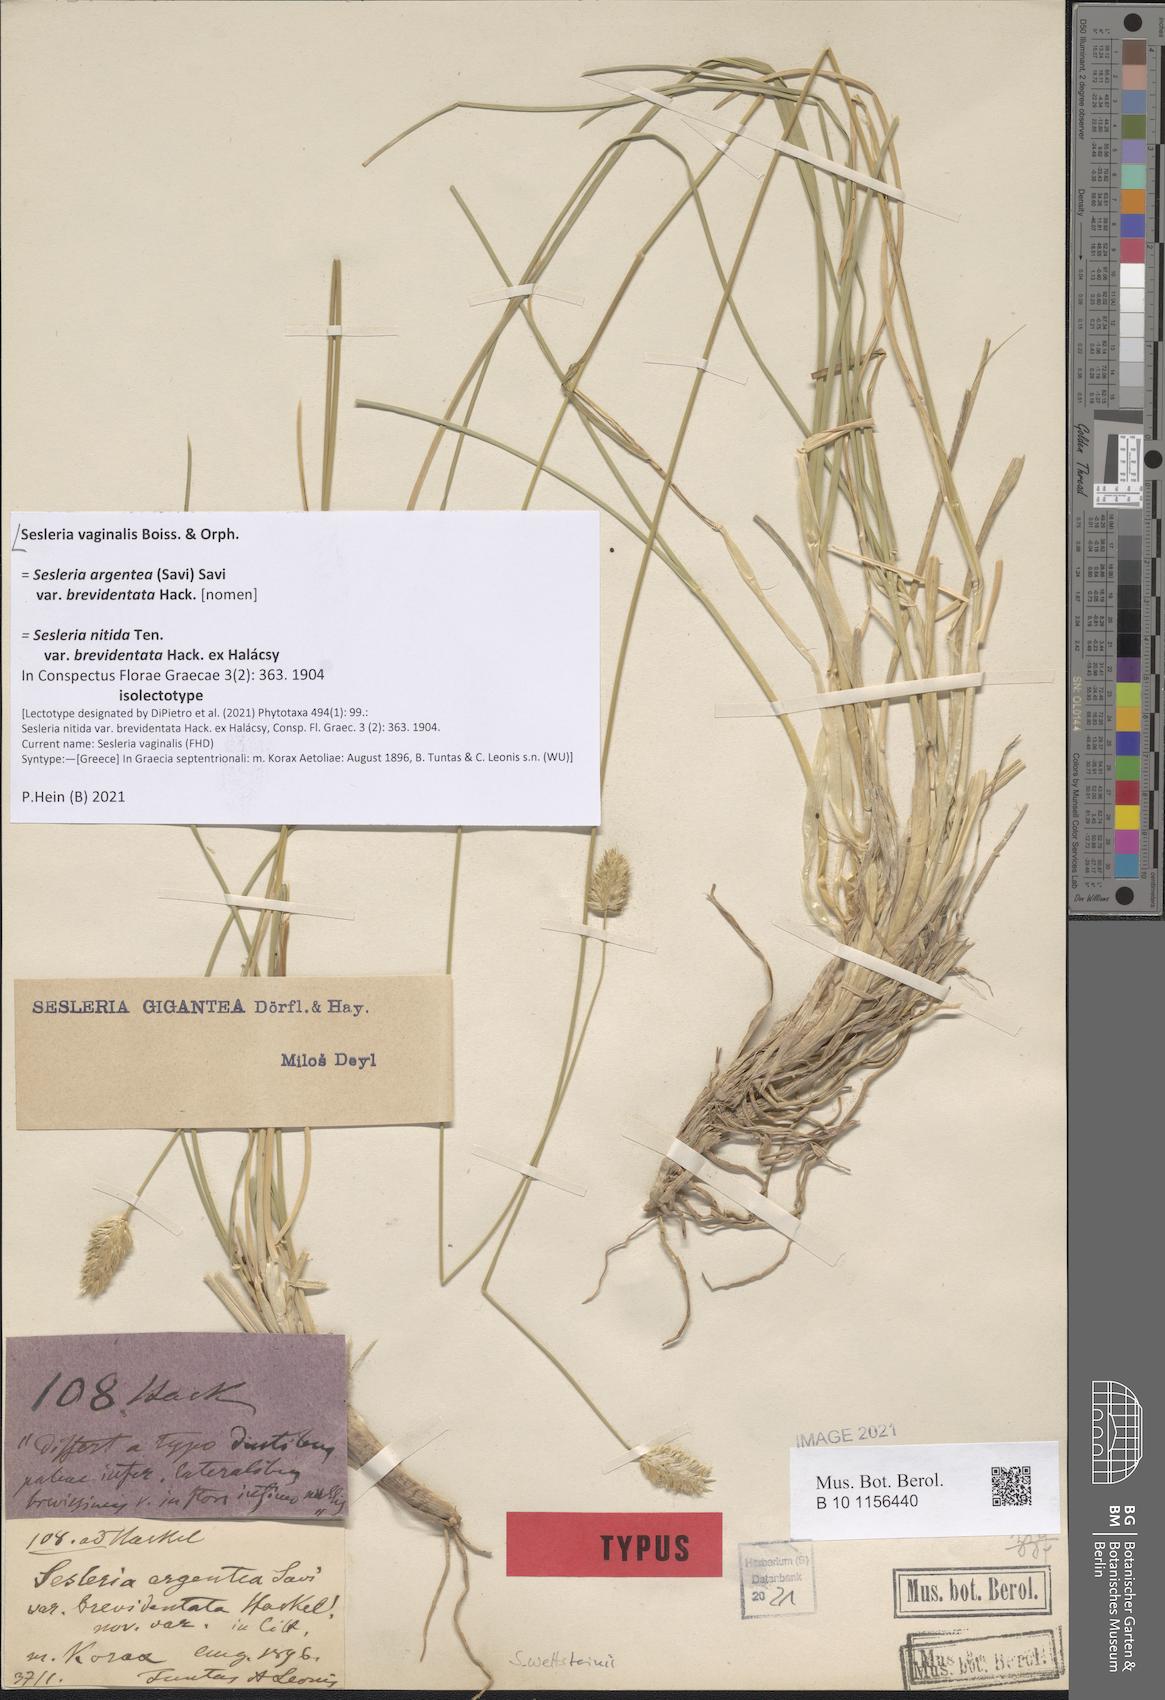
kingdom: Plantae
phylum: Tracheophyta
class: Liliopsida
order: Poales
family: Poaceae
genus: Sesleria
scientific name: Sesleria vaginalis
